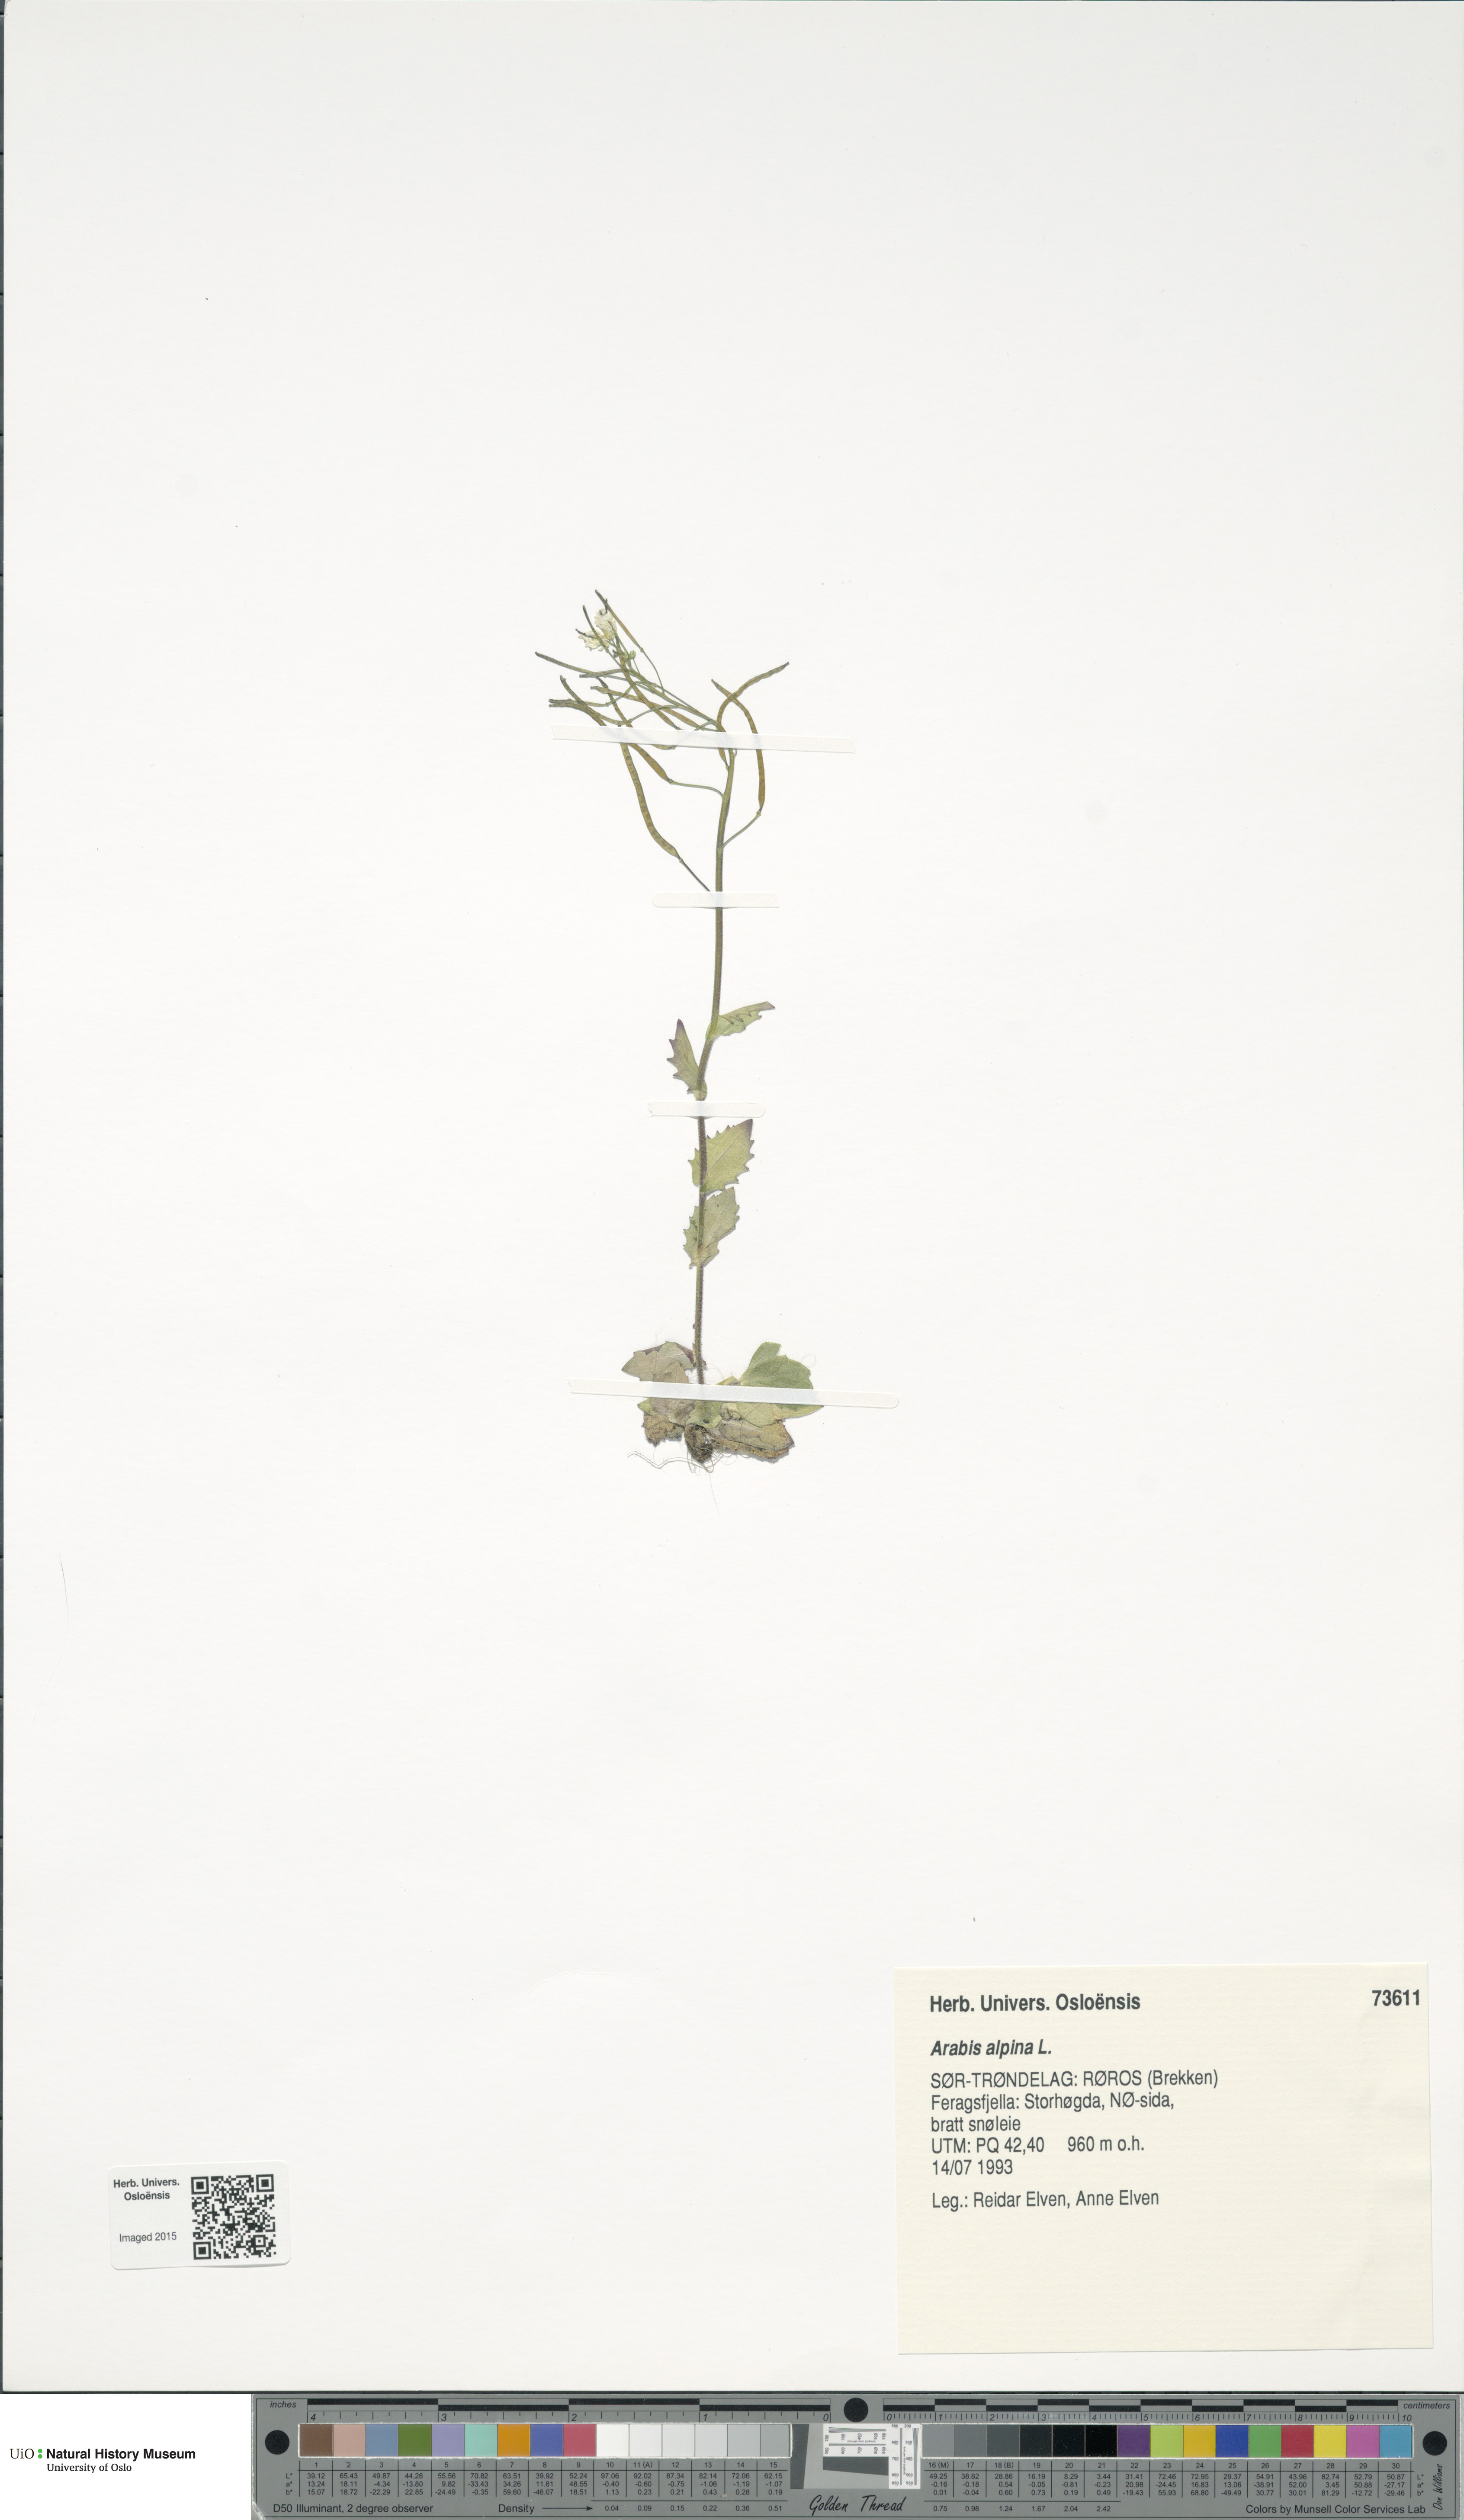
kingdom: Plantae
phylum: Tracheophyta
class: Magnoliopsida
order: Brassicales
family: Brassicaceae
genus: Arabis
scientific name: Arabis alpina
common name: Alpine rock-cress
